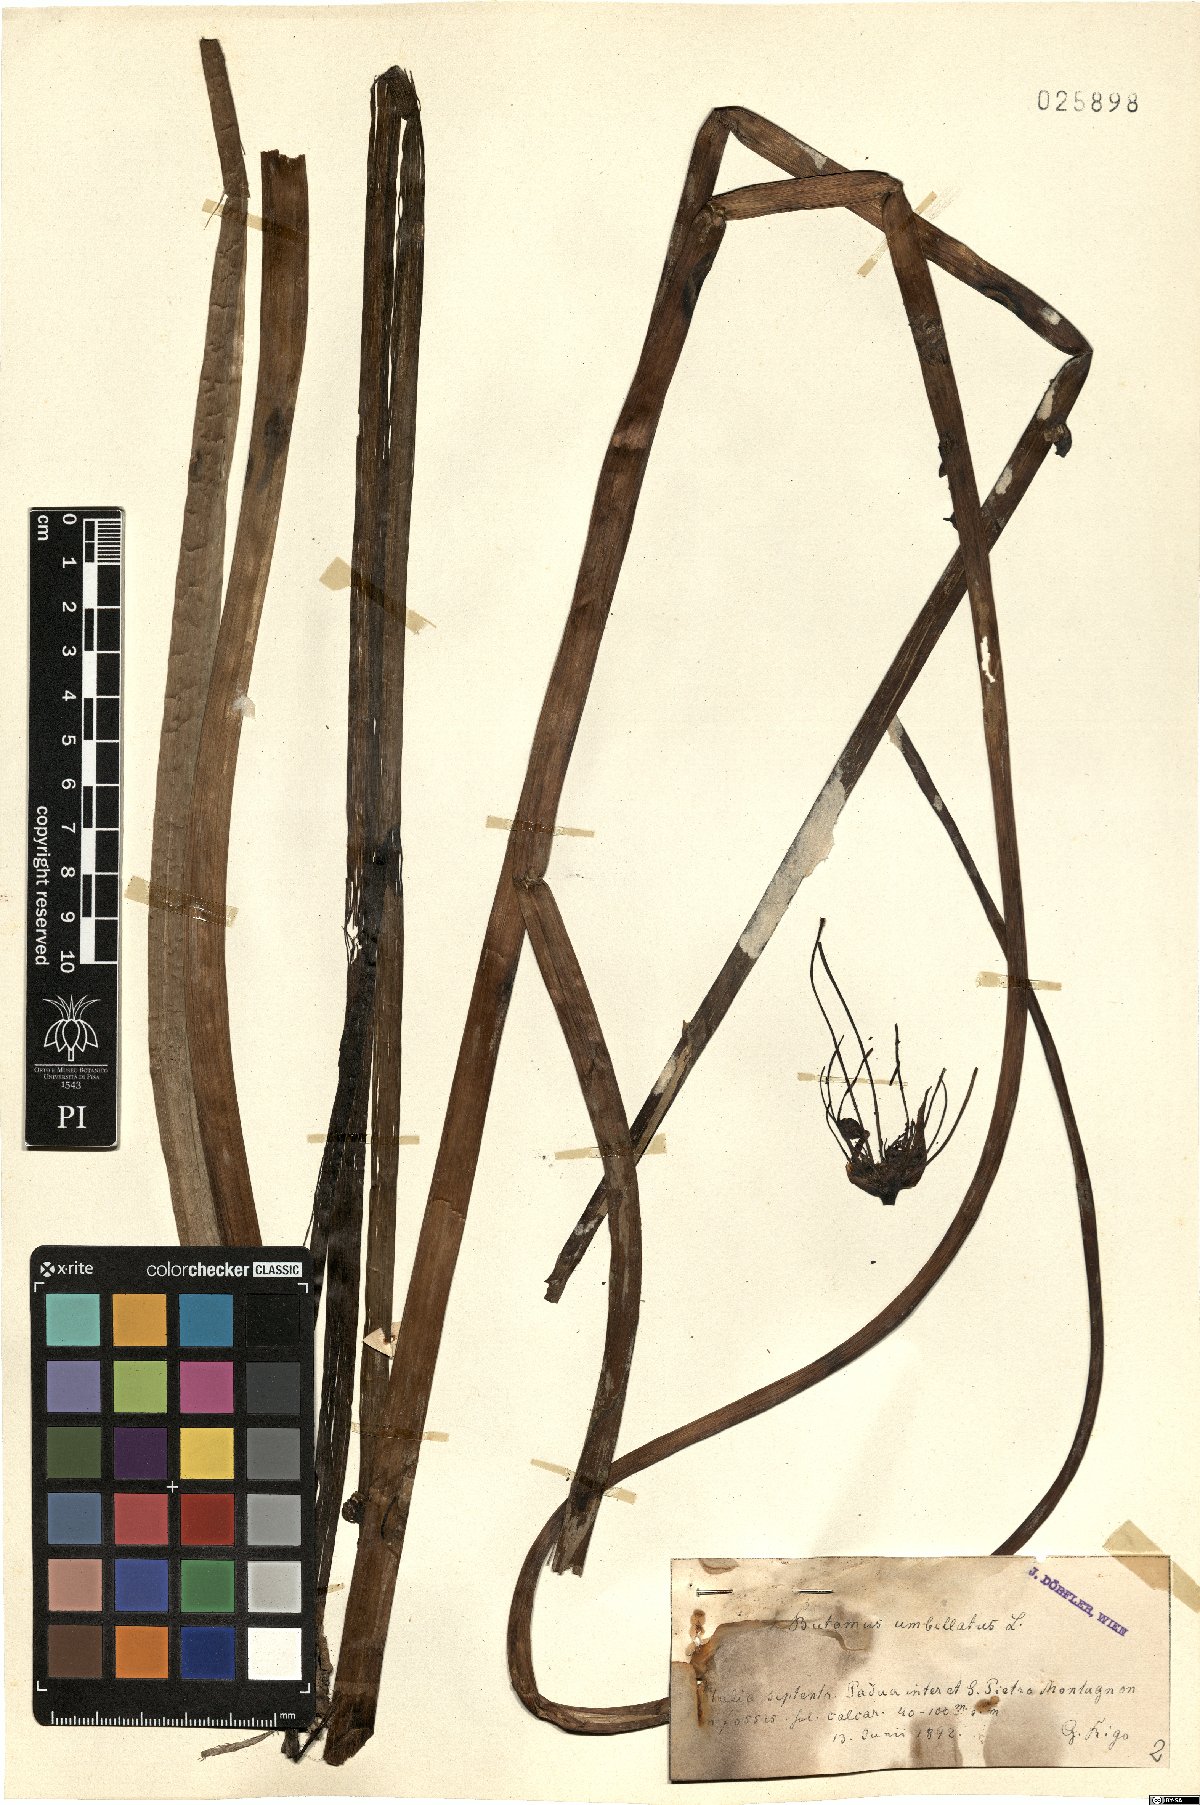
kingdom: Plantae
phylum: Tracheophyta
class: Liliopsida
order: Alismatales
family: Butomaceae
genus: Butomus
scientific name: Butomus umbellatus
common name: Flowering-rush
